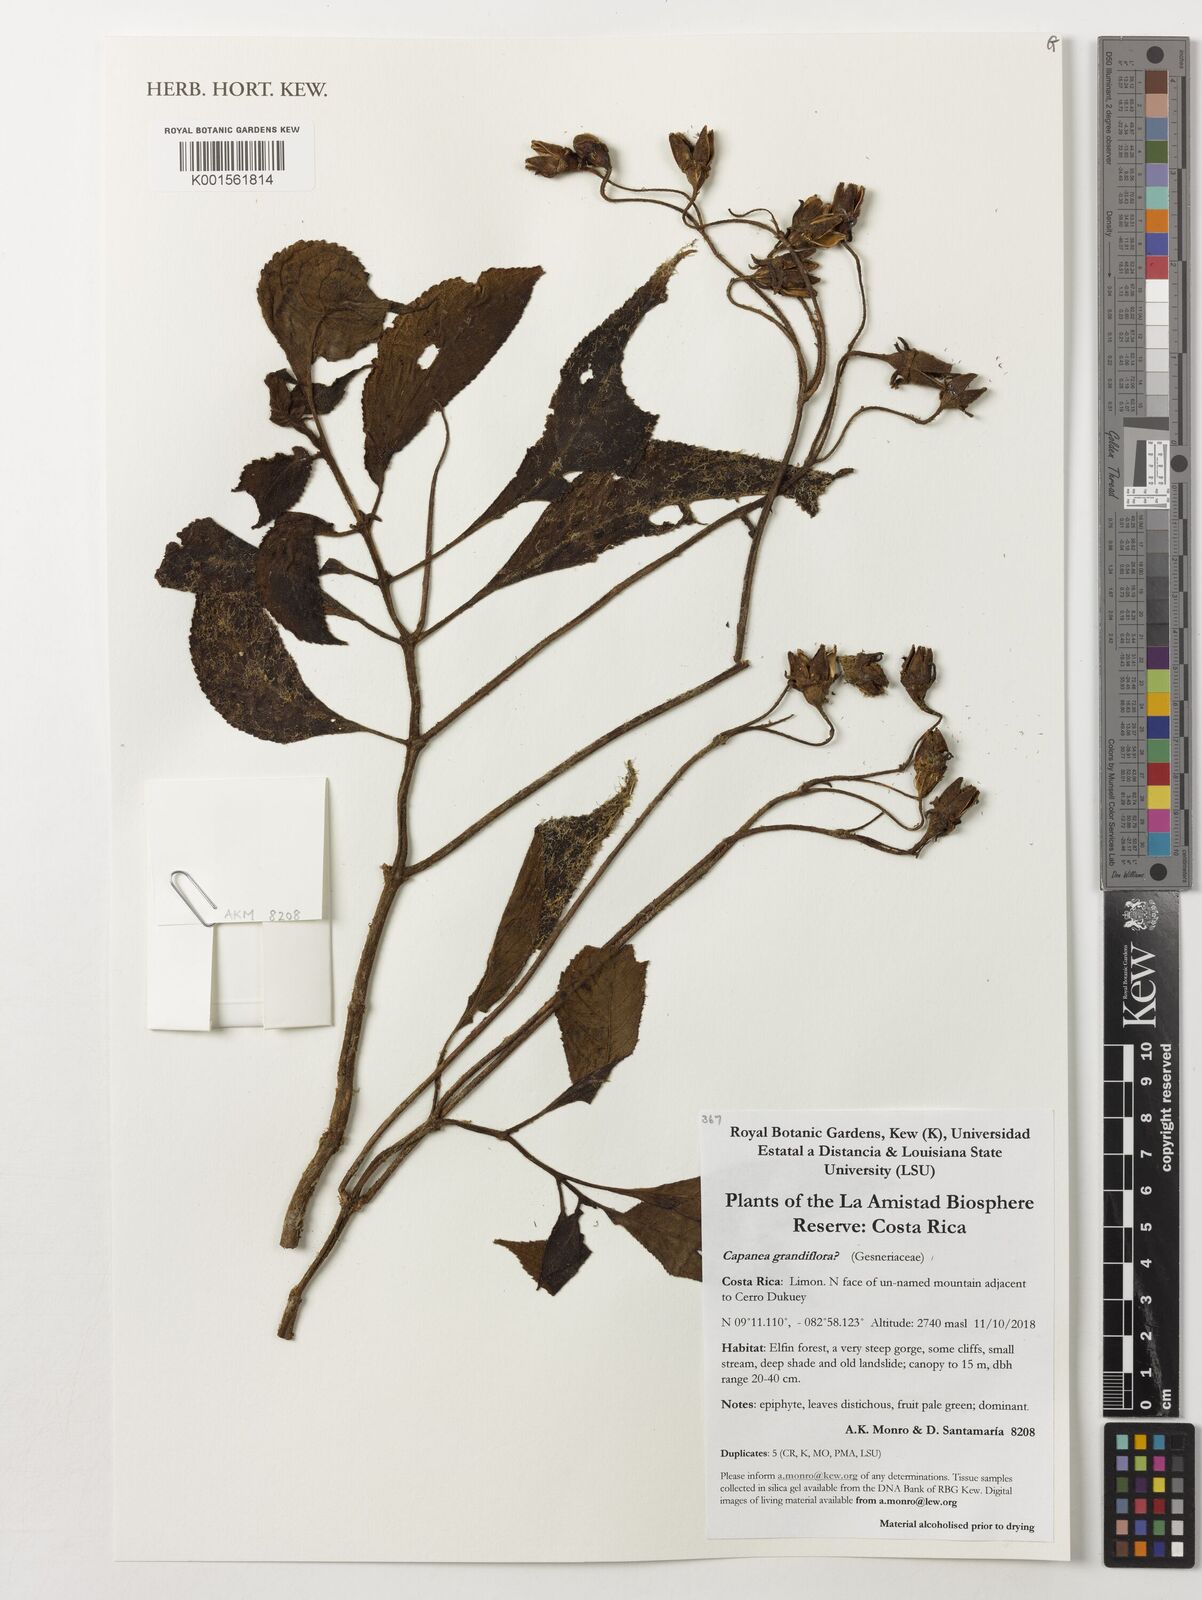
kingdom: Plantae
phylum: Tracheophyta
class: Magnoliopsida
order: Lamiales
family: Gesneriaceae
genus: Kohleria
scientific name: Kohleria tigridia
